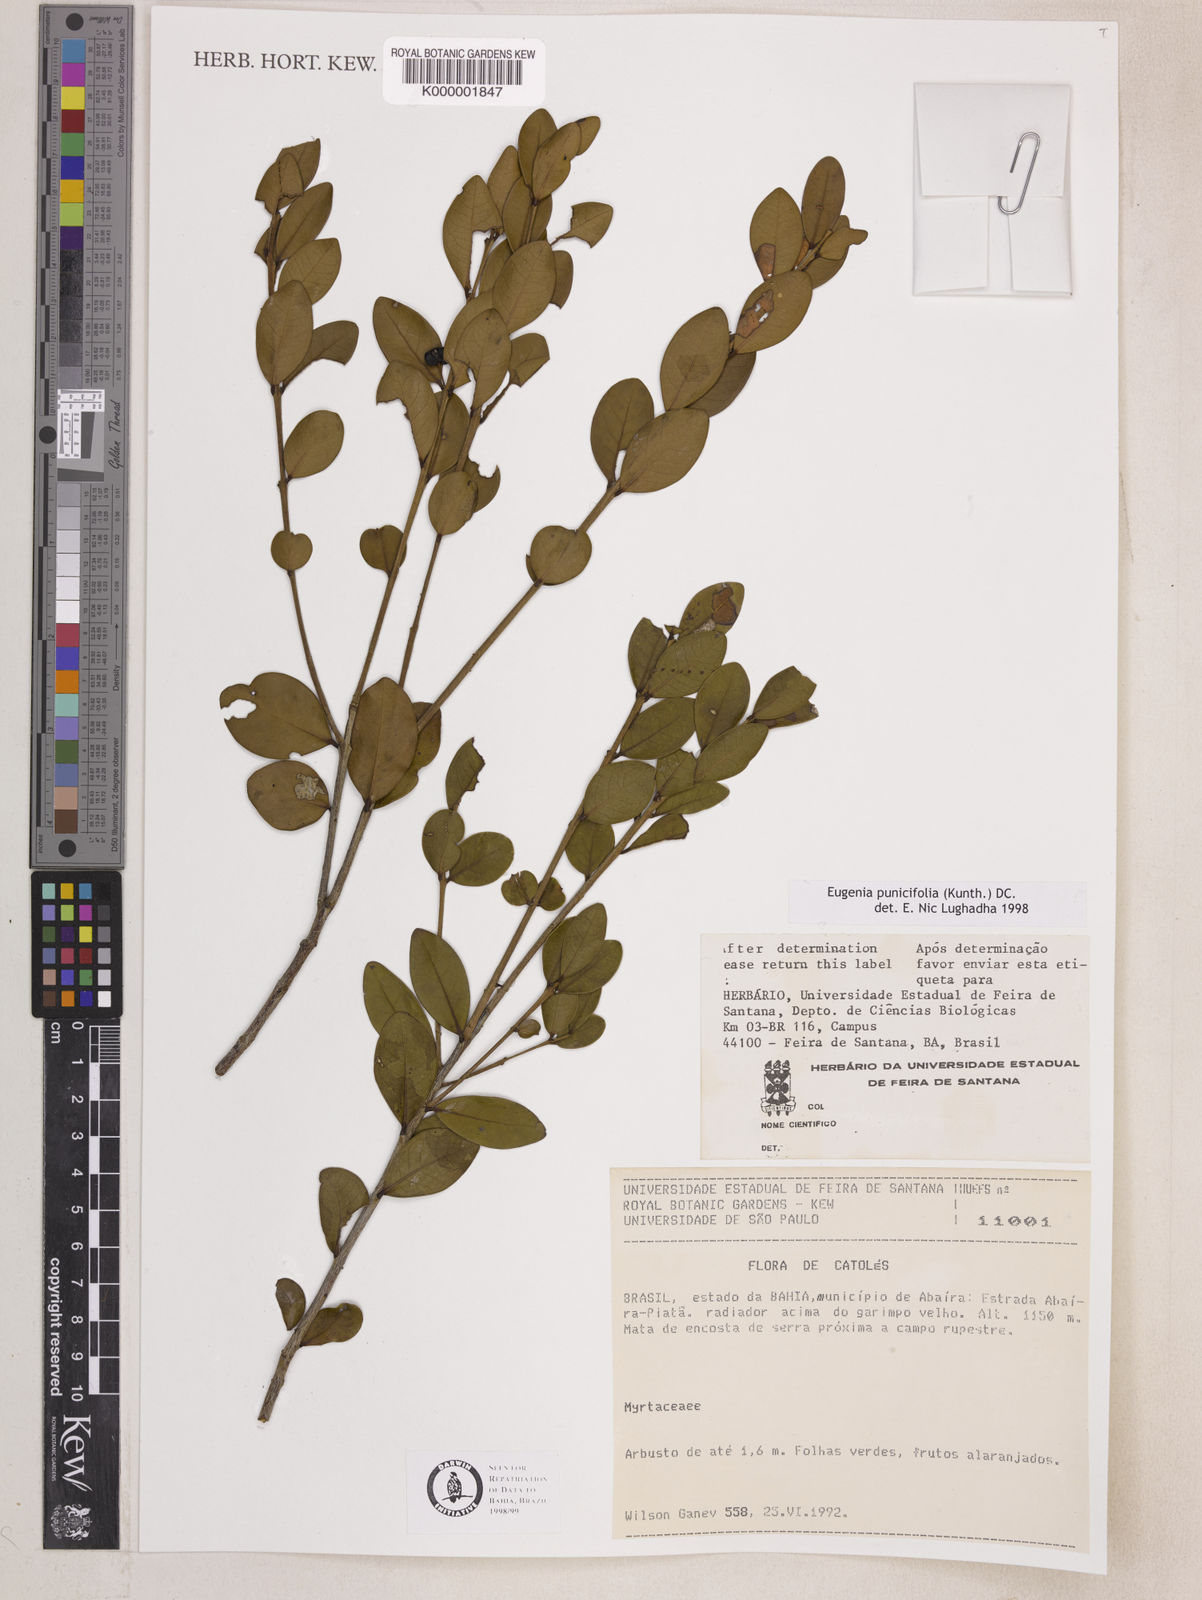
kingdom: Plantae
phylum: Tracheophyta
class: Magnoliopsida
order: Myrtales
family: Myrtaceae
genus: Eugenia
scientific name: Eugenia punicifolia
